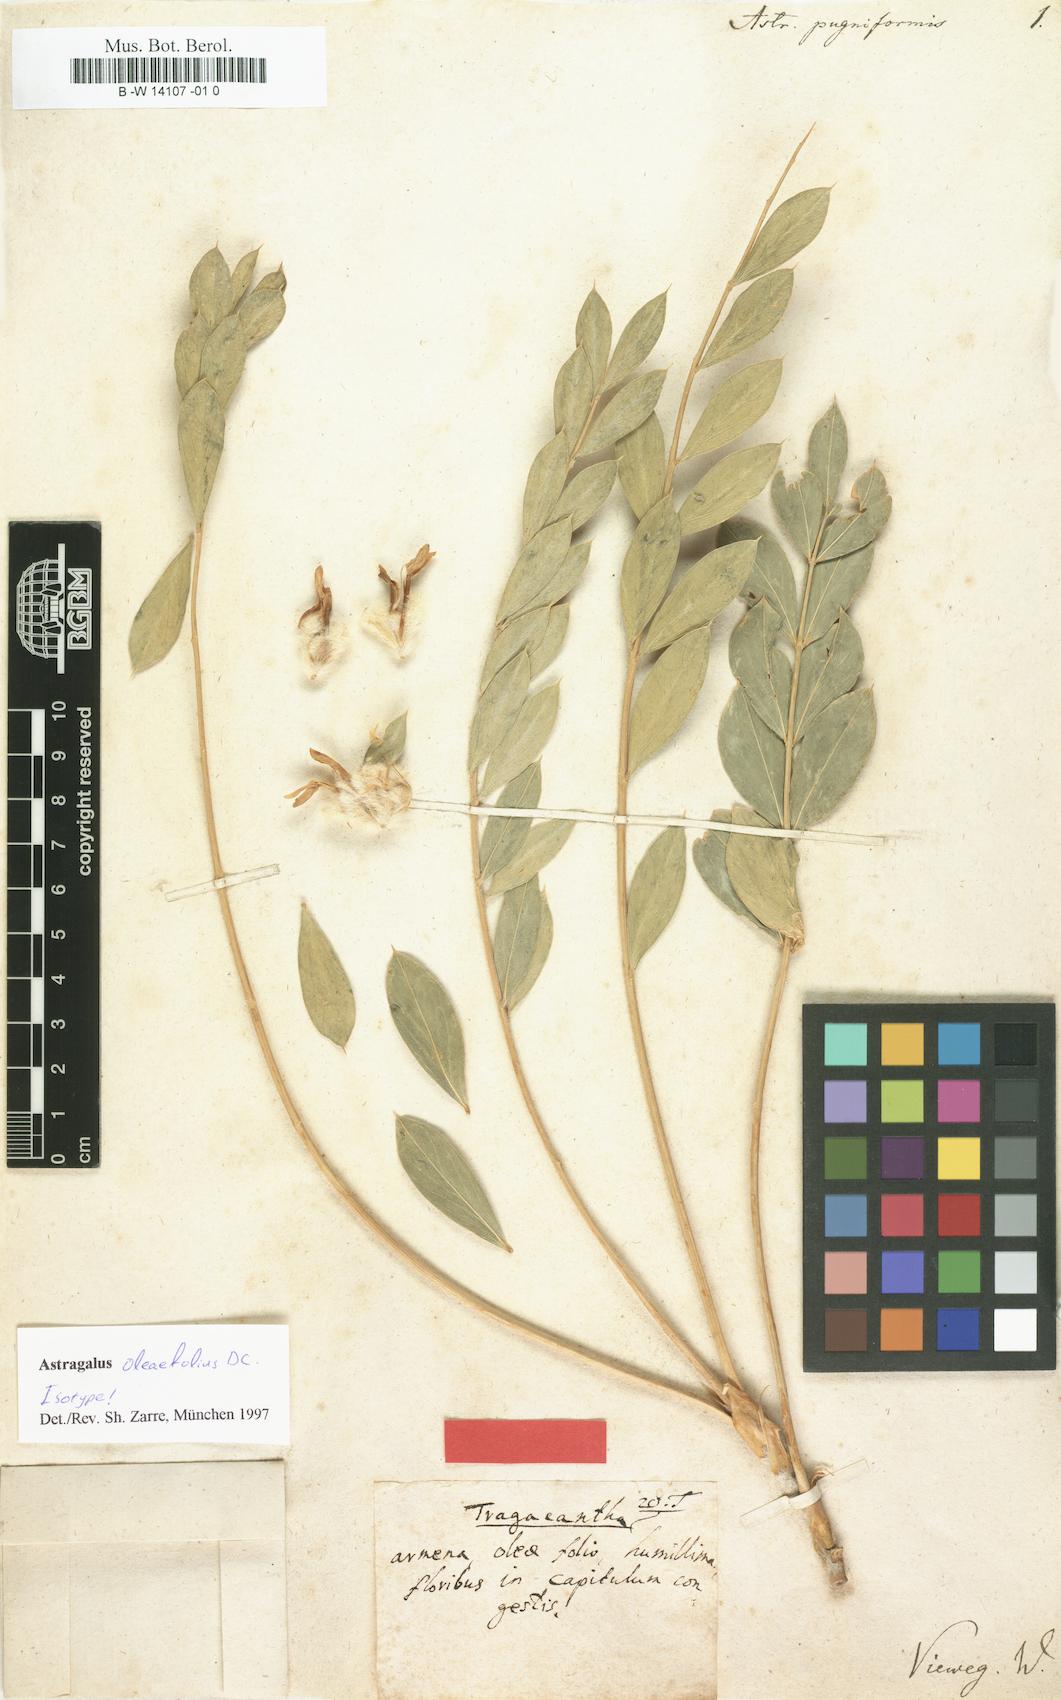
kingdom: Plantae
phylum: Tracheophyta
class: Magnoliopsida
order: Fabales
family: Fabaceae
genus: Astragalus
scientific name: Astragalus
